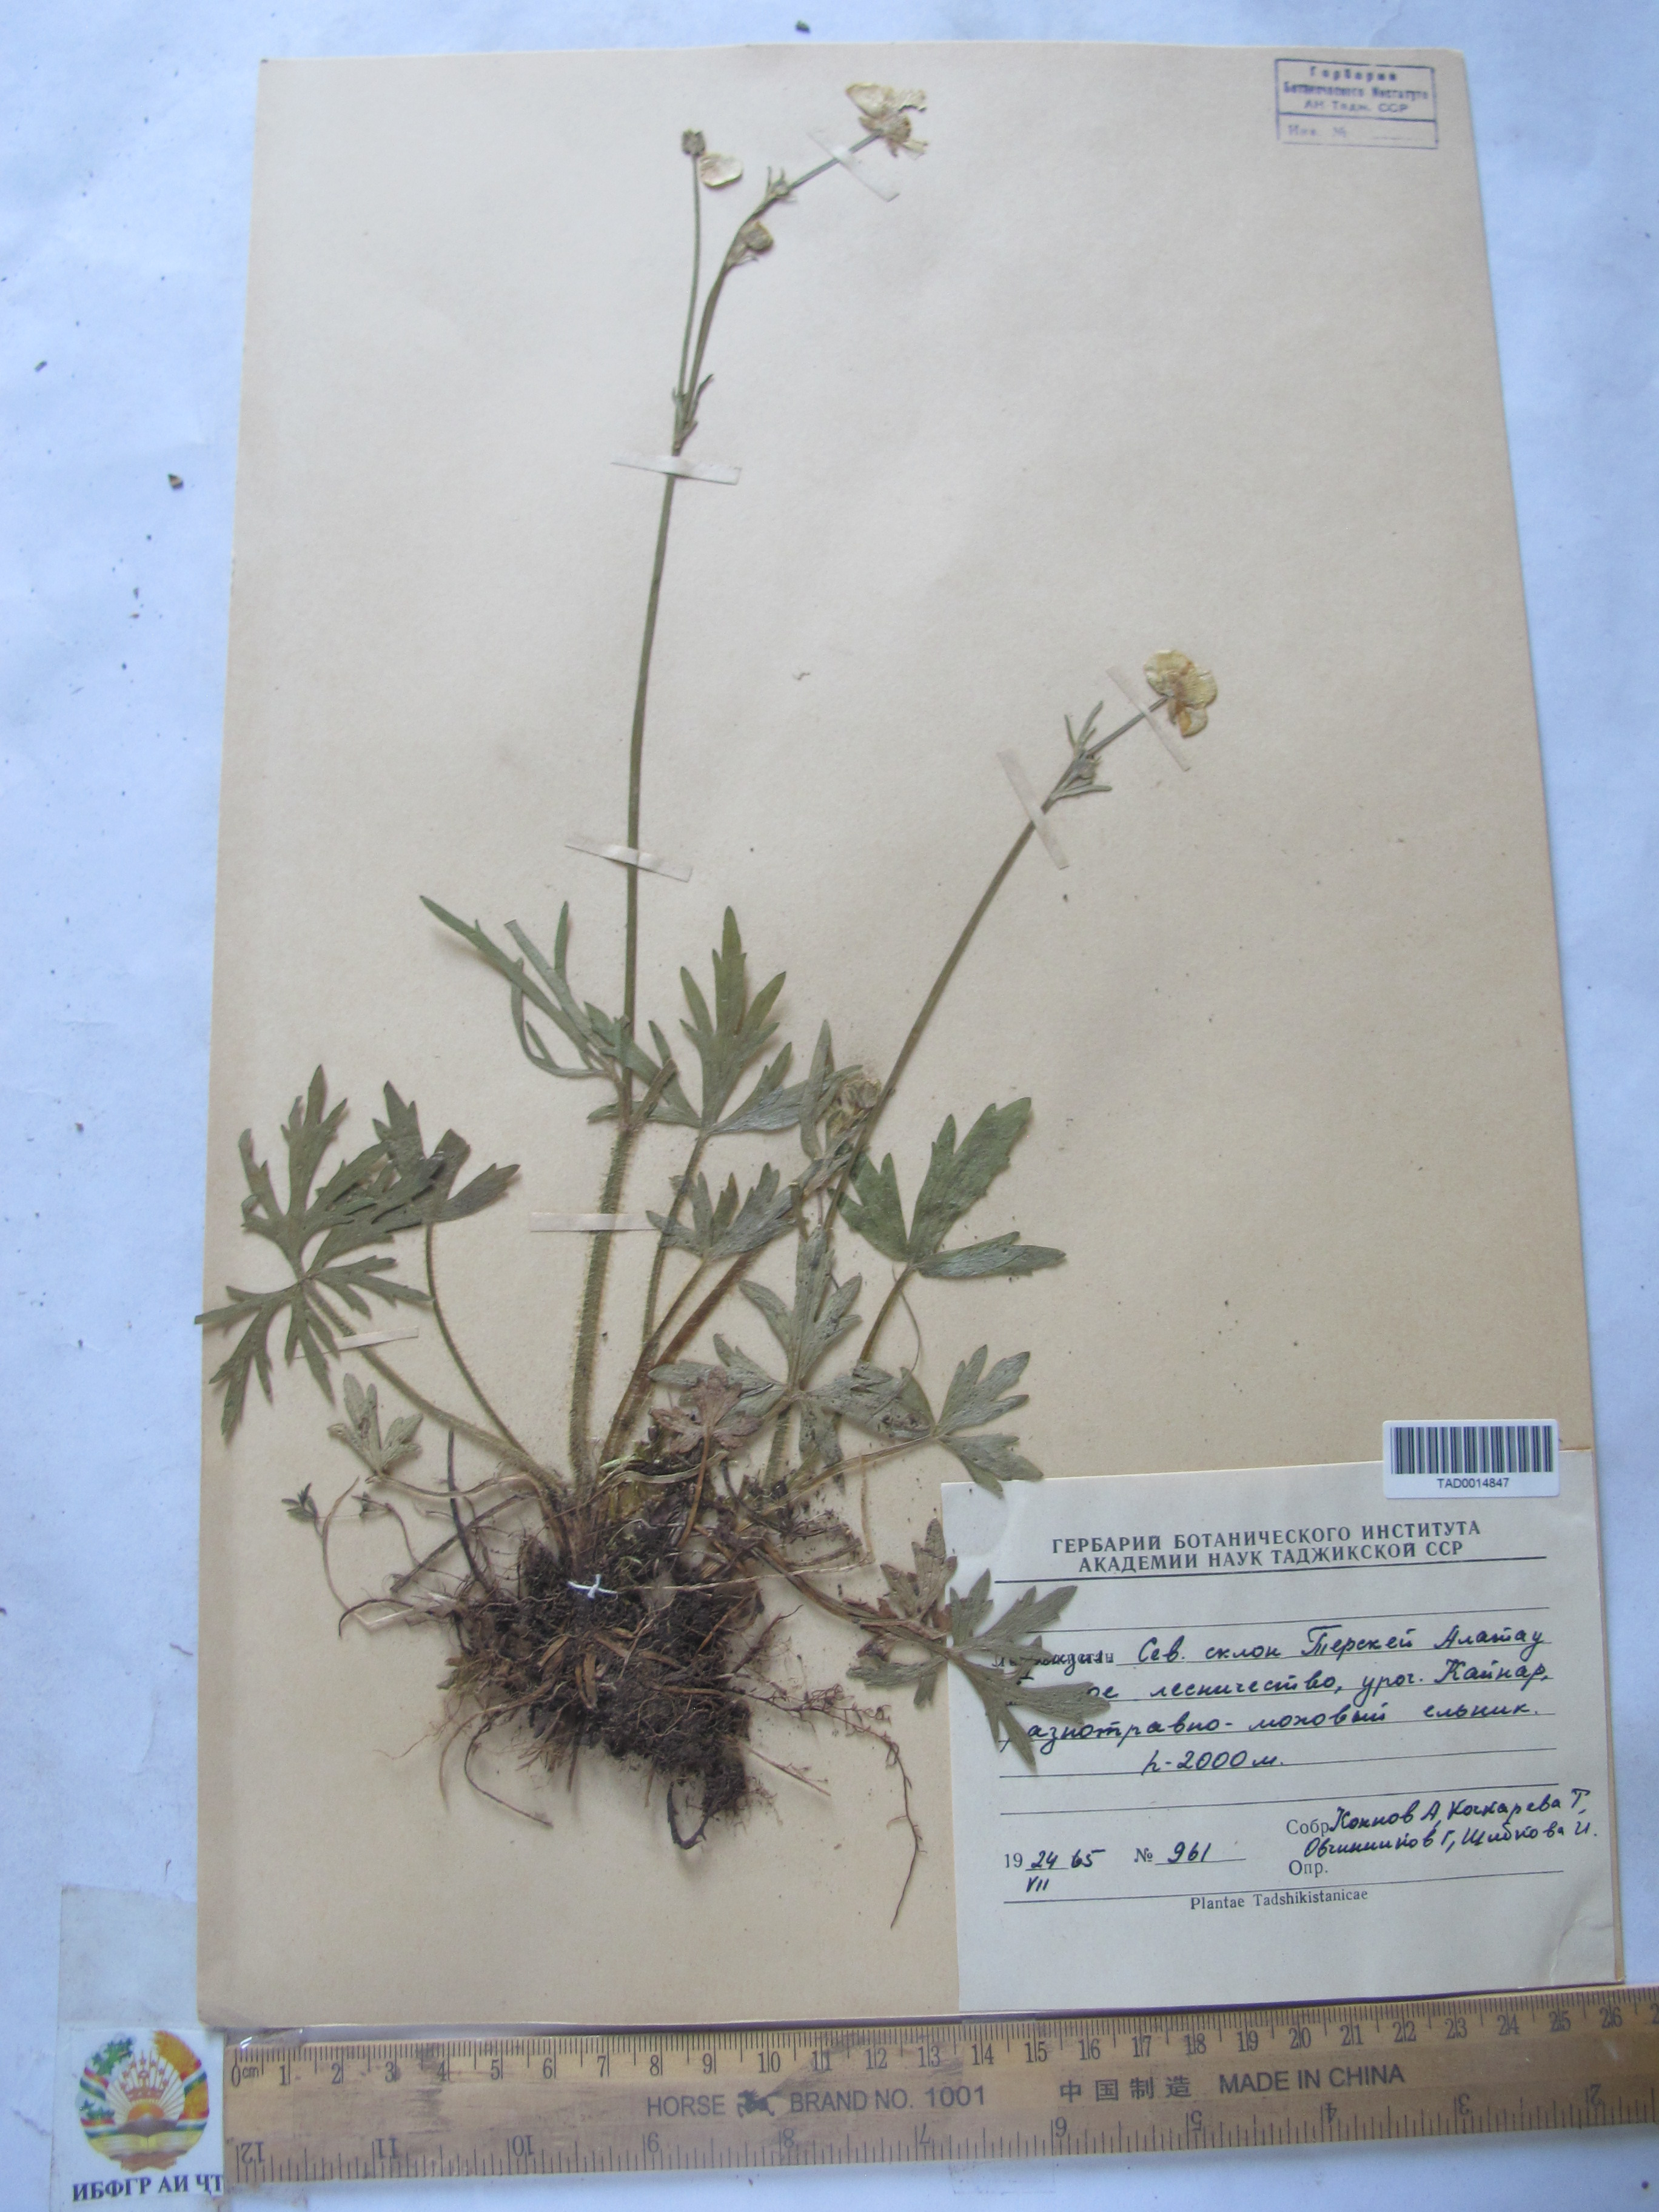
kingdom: Plantae
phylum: Tracheophyta
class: Magnoliopsida
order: Ranunculales
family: Ranunculaceae
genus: Ranunculus
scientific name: Ranunculus polyanthemos
